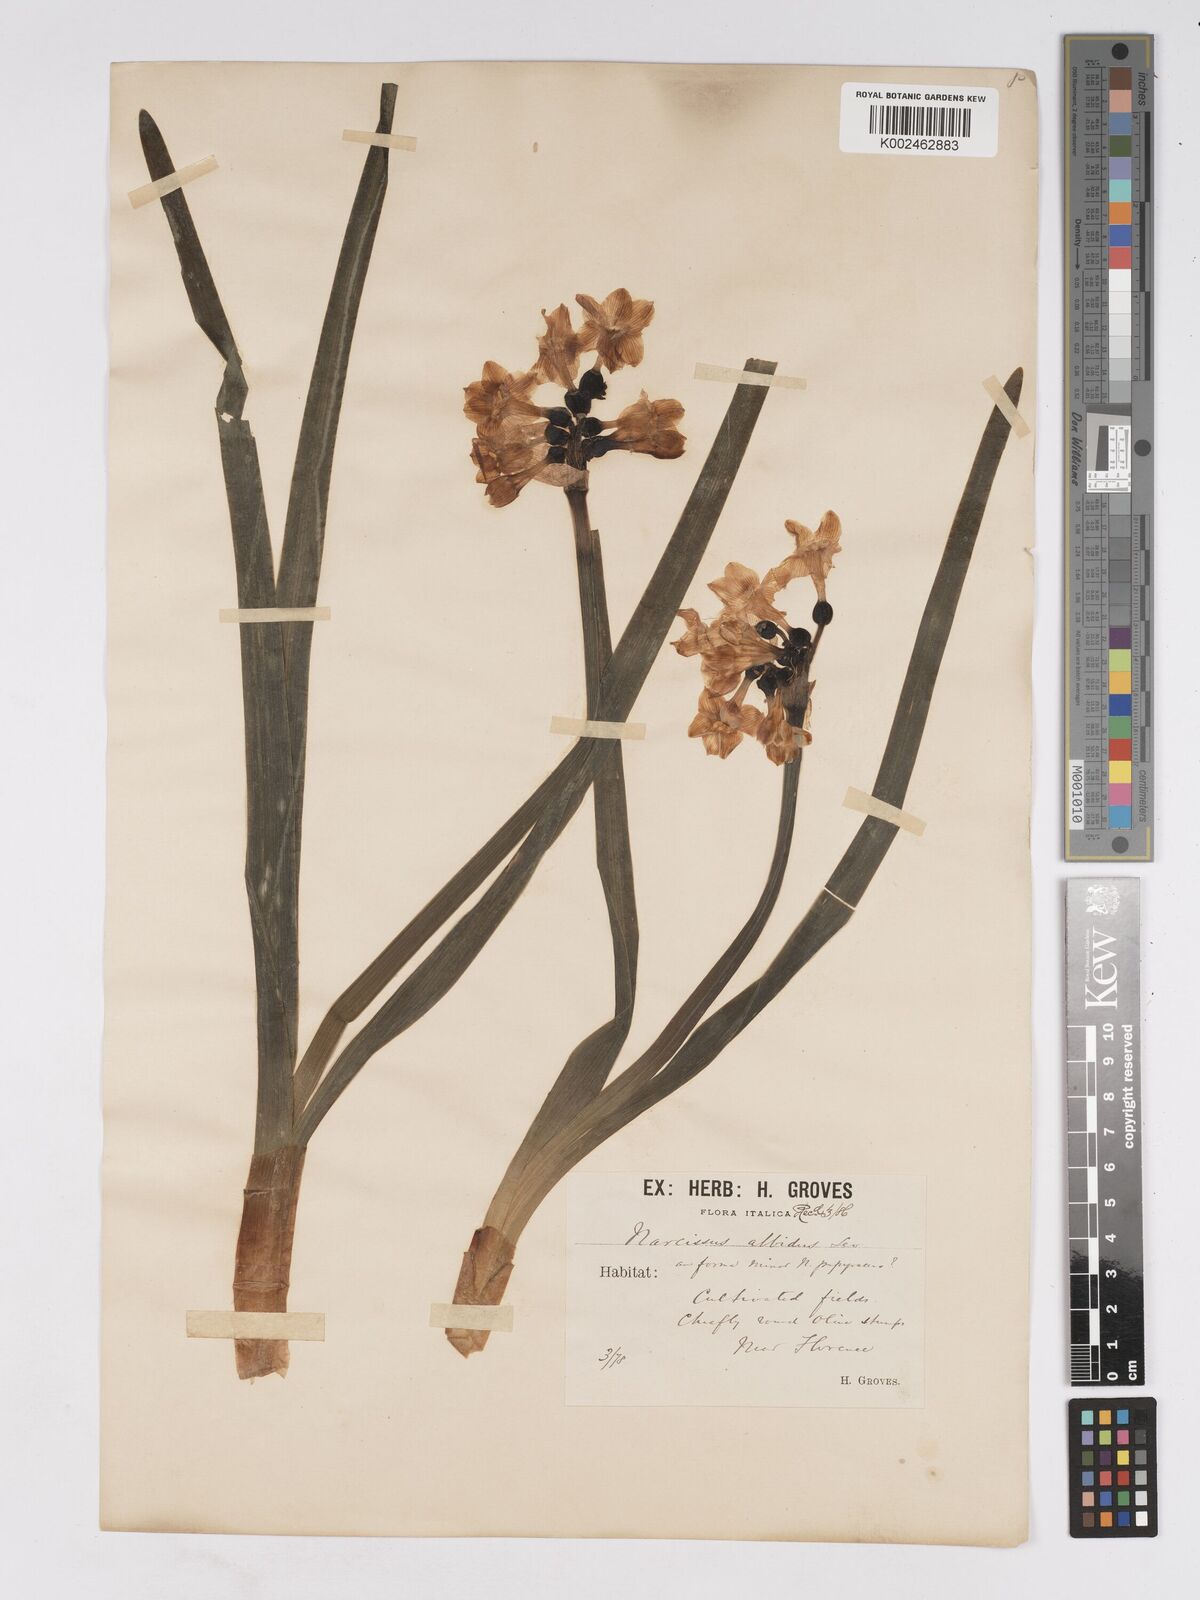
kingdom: Plantae
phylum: Tracheophyta
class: Liliopsida
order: Asparagales
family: Amaryllidaceae
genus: Narcissus
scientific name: Narcissus papyraceus
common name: Paper-white daffodil
